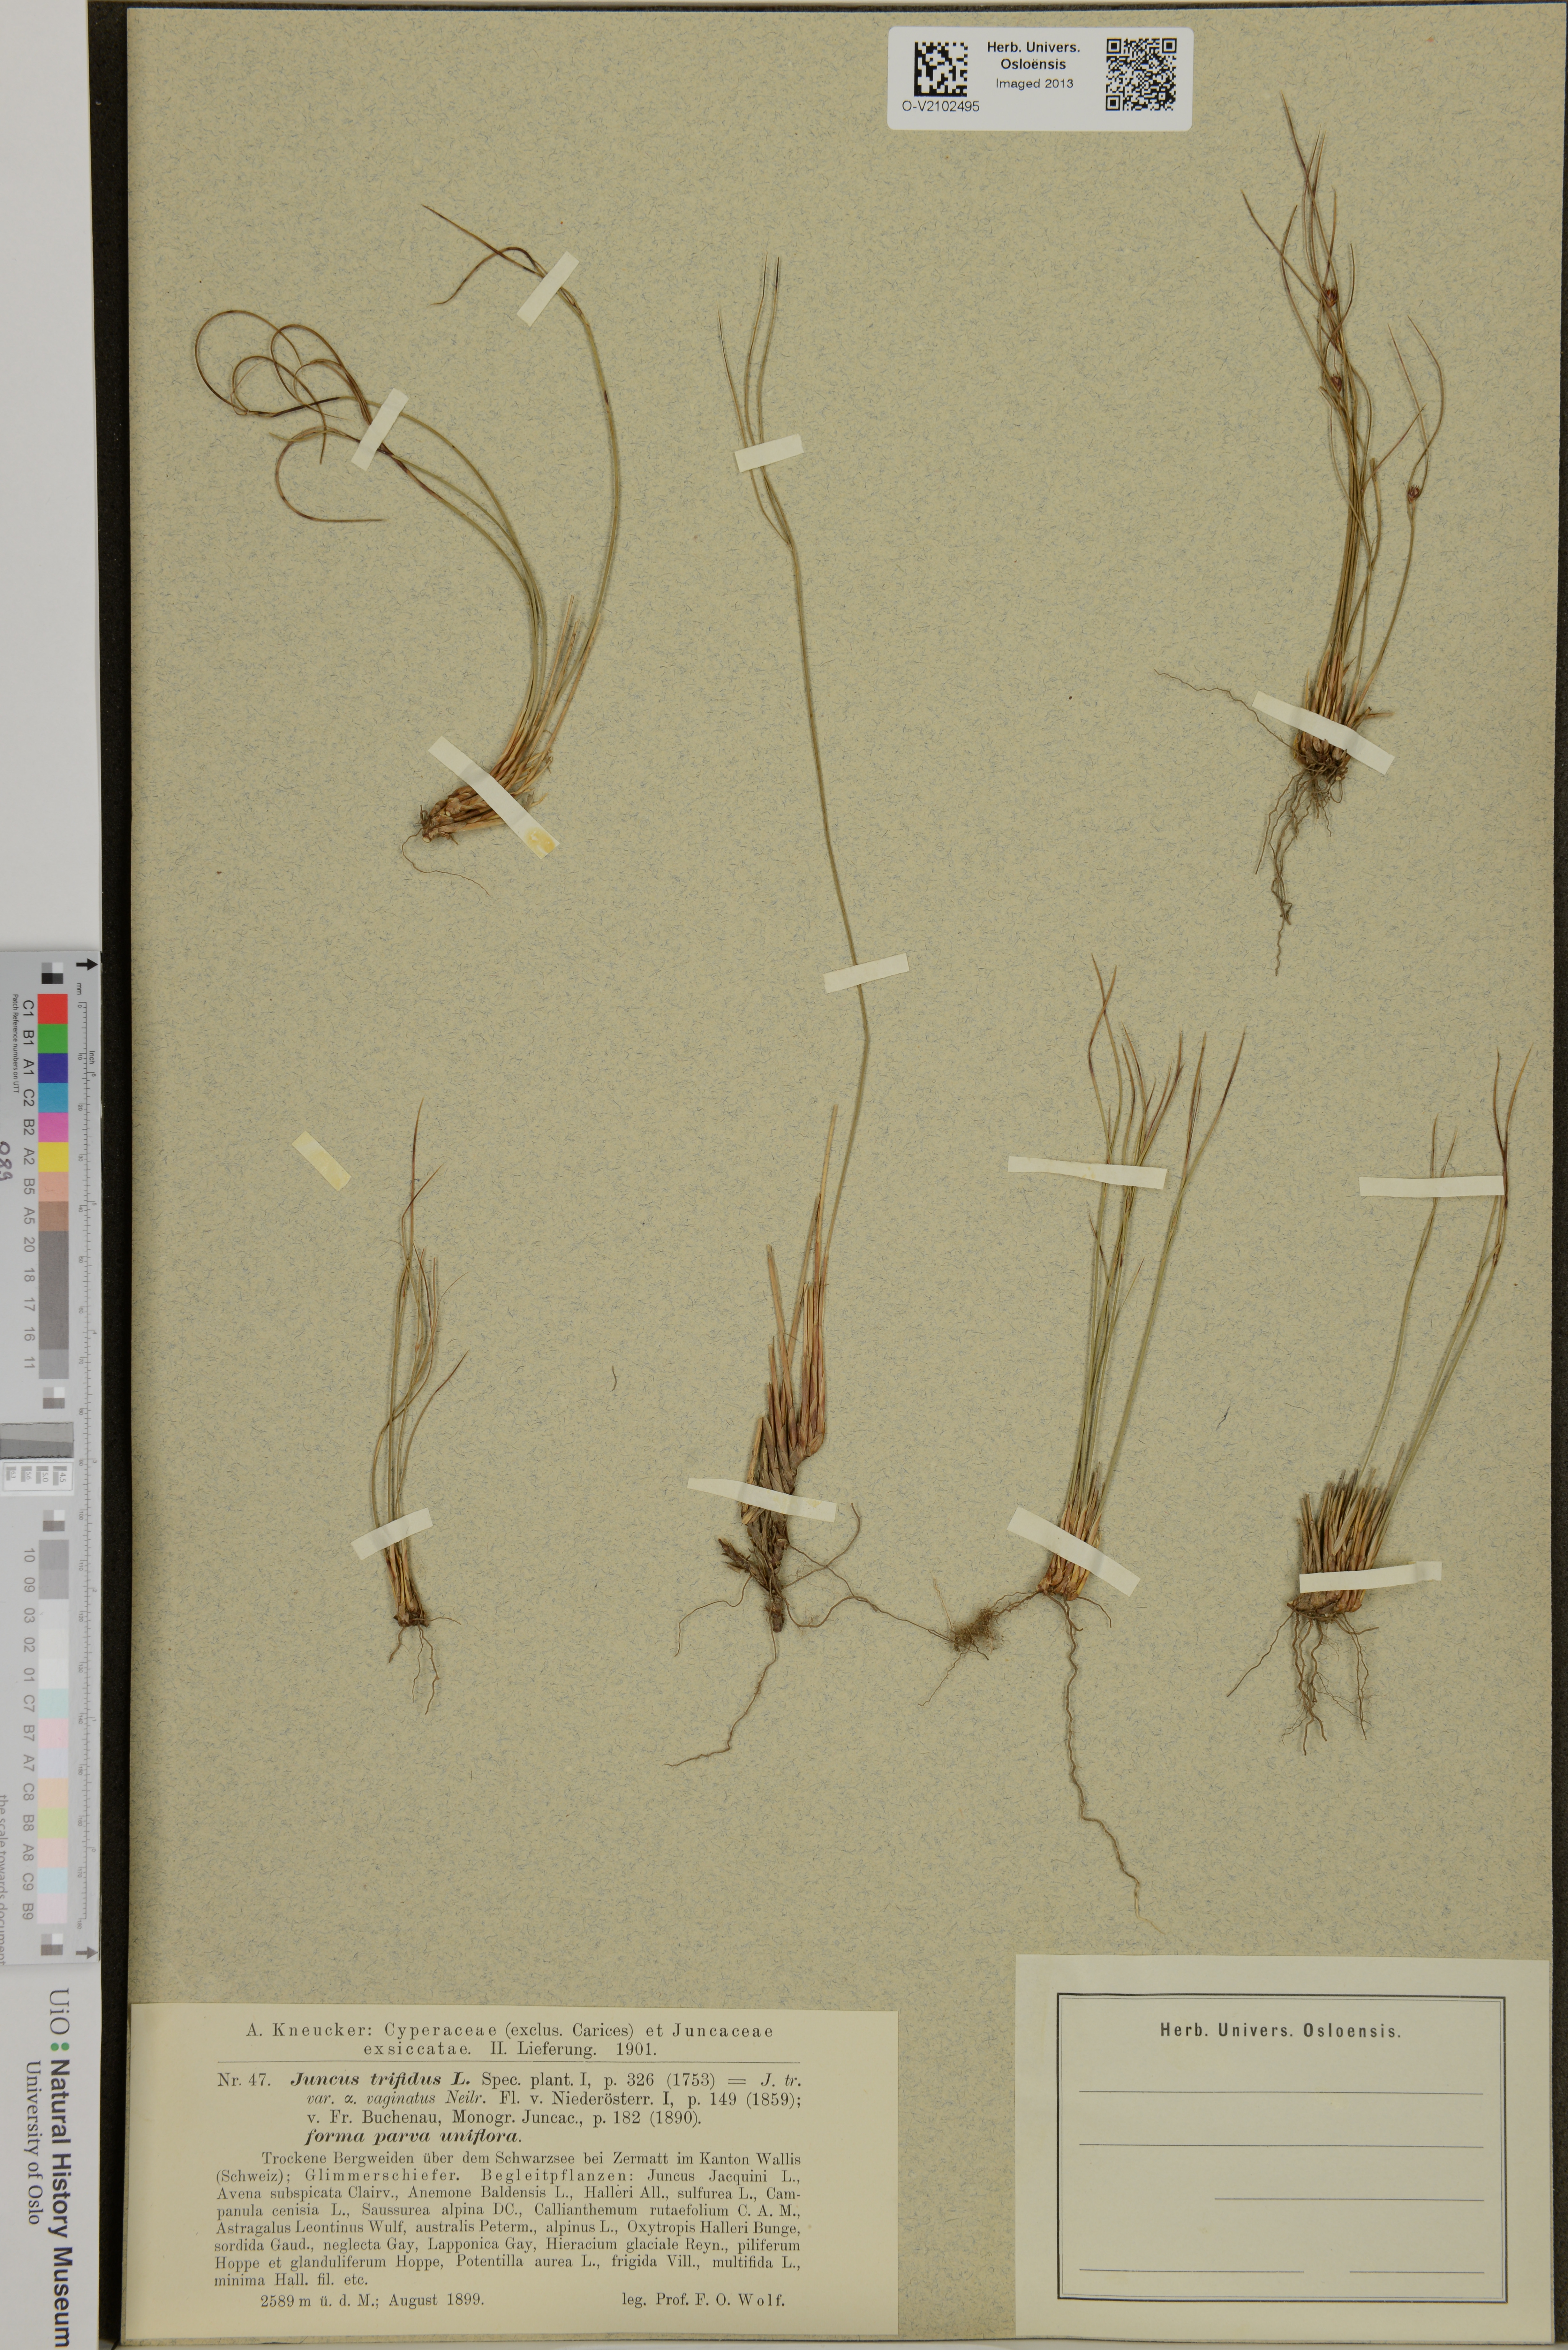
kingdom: Plantae
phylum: Tracheophyta
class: Liliopsida
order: Poales
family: Juncaceae
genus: Oreojuncus
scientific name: Oreojuncus trifidus
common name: Highland rush
